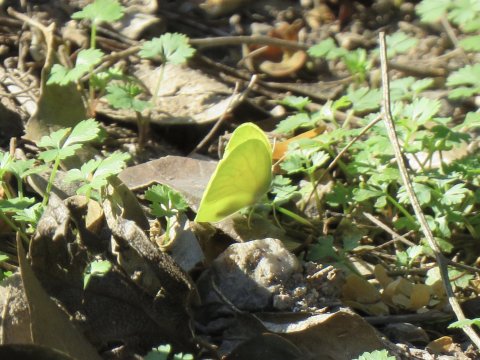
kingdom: Animalia
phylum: Arthropoda
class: Insecta
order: Lepidoptera
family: Pieridae
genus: Aphrissa
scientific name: Aphrissa statira
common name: Statira Sulphur
